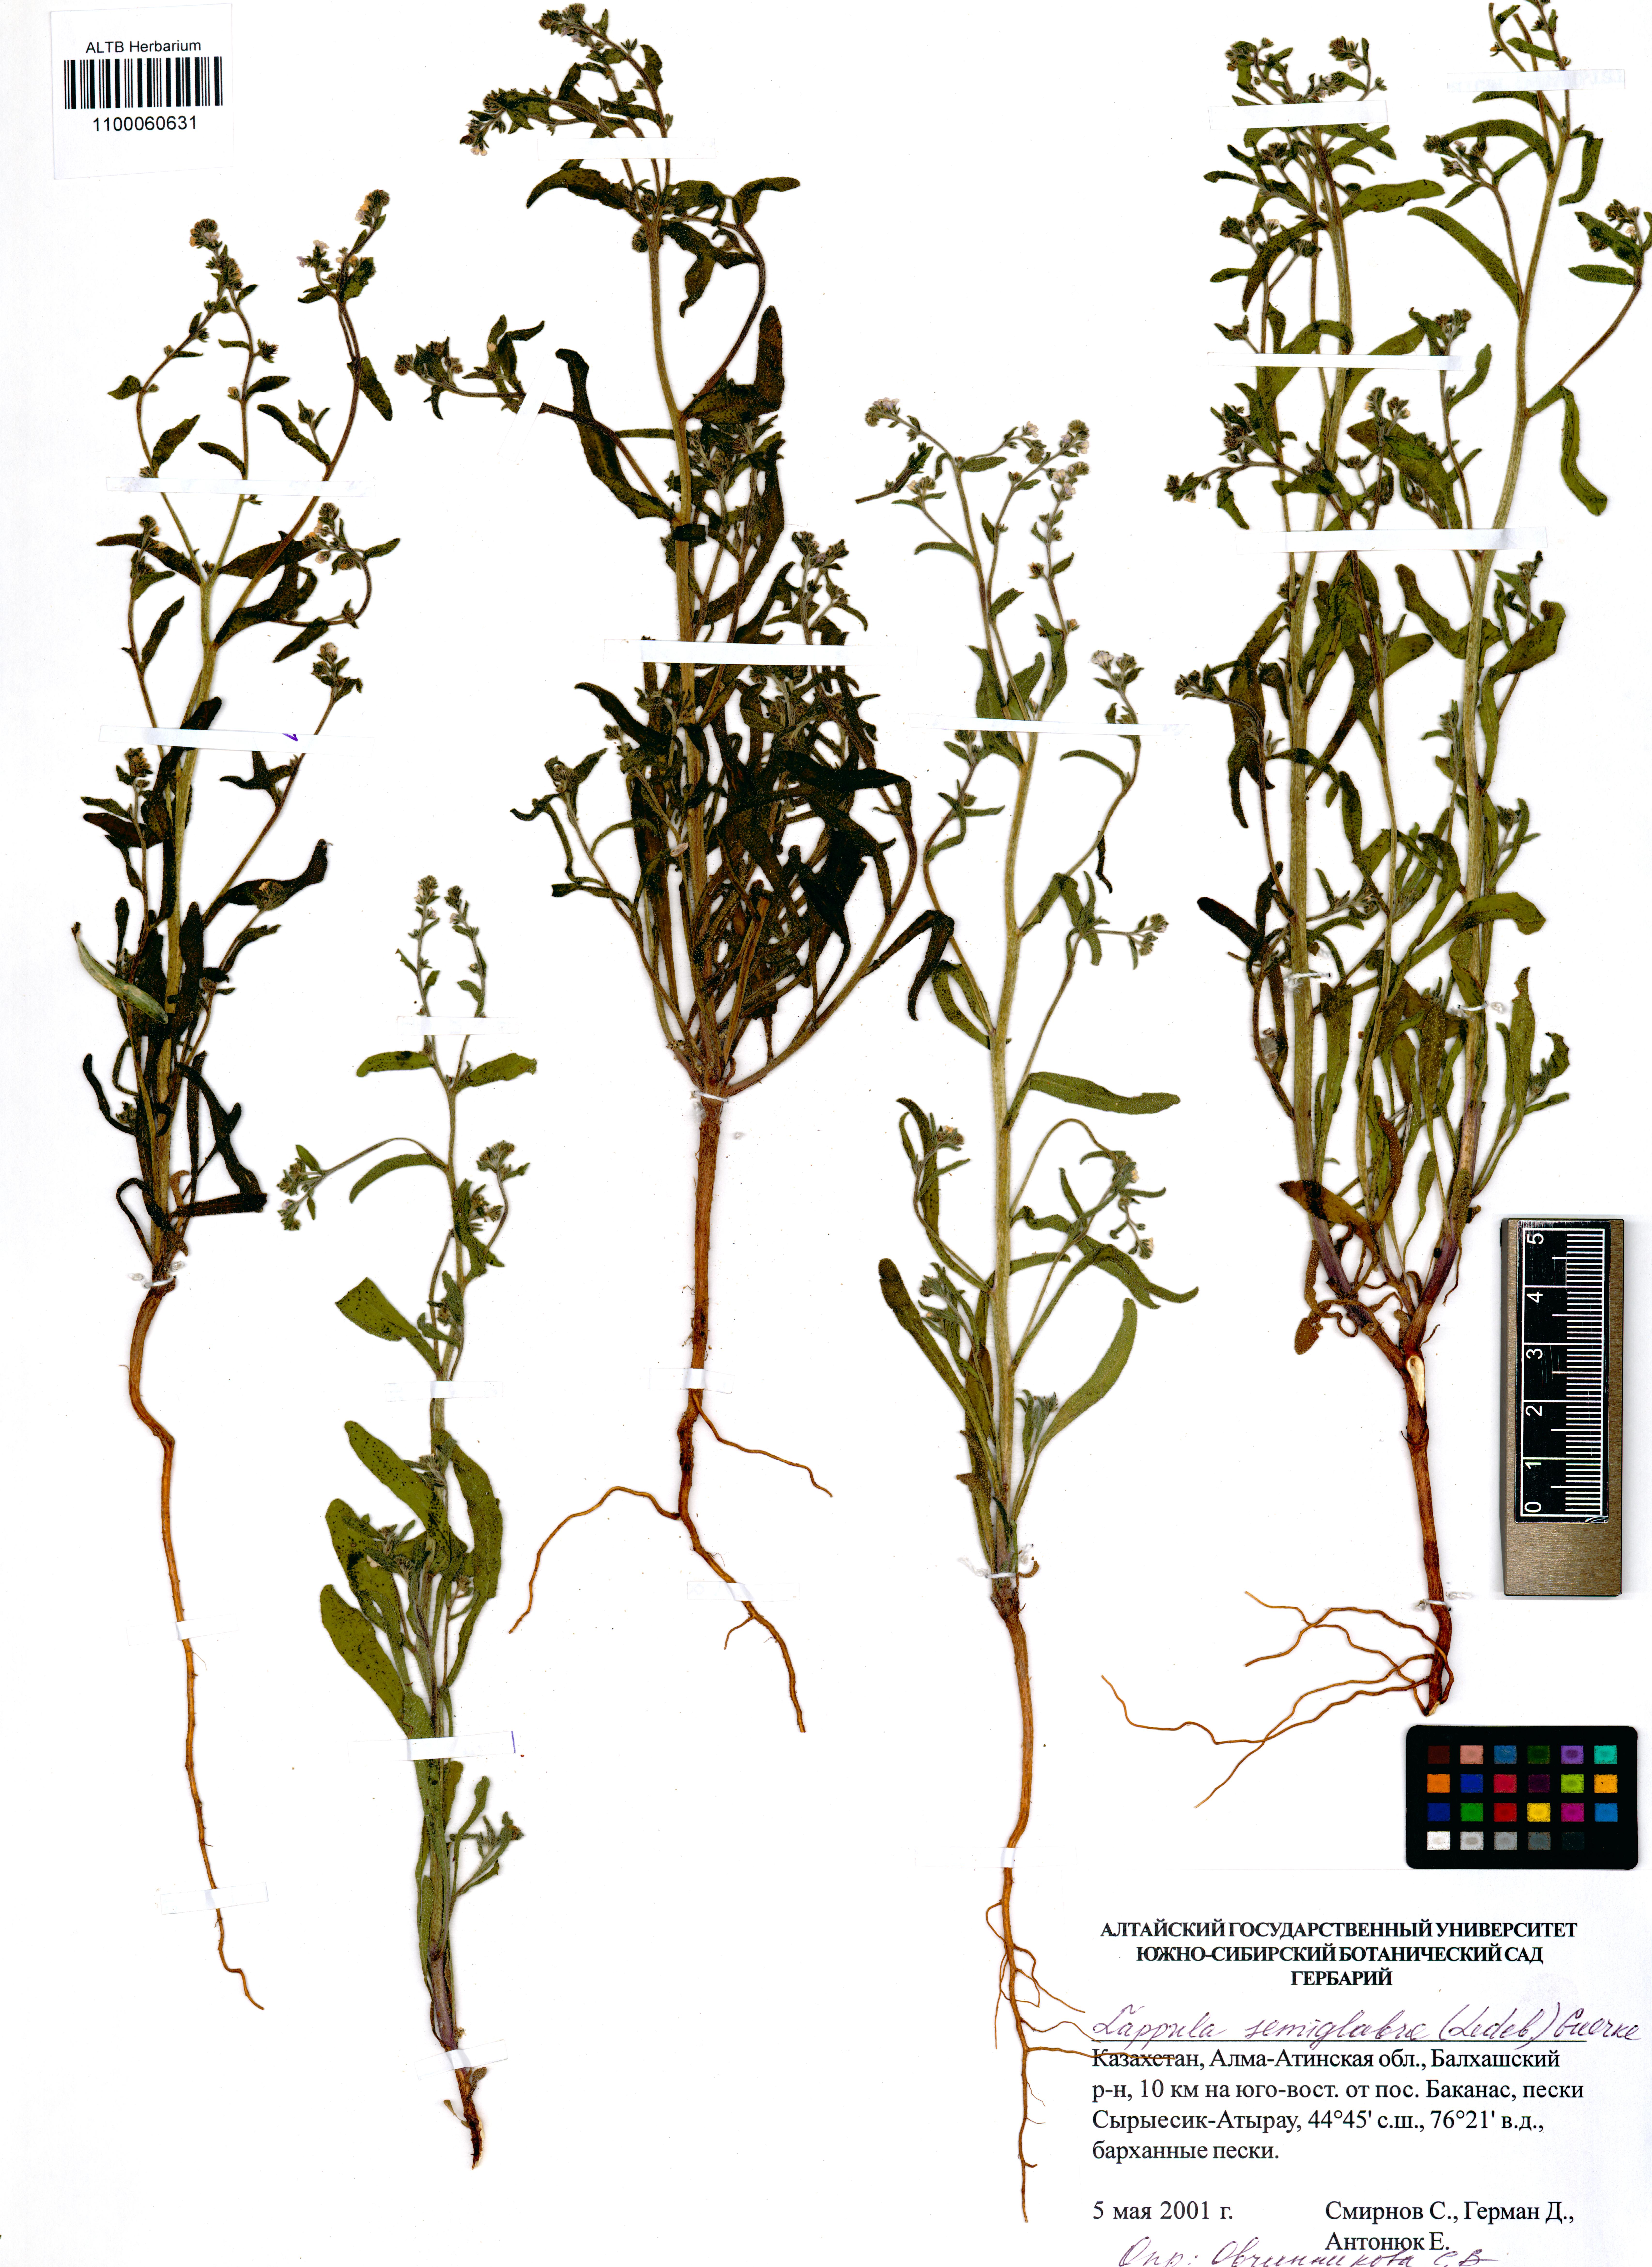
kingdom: Plantae
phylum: Tracheophyta
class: Magnoliopsida
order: Boraginales
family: Boraginaceae
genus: Lappula
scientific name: Lappula patula
